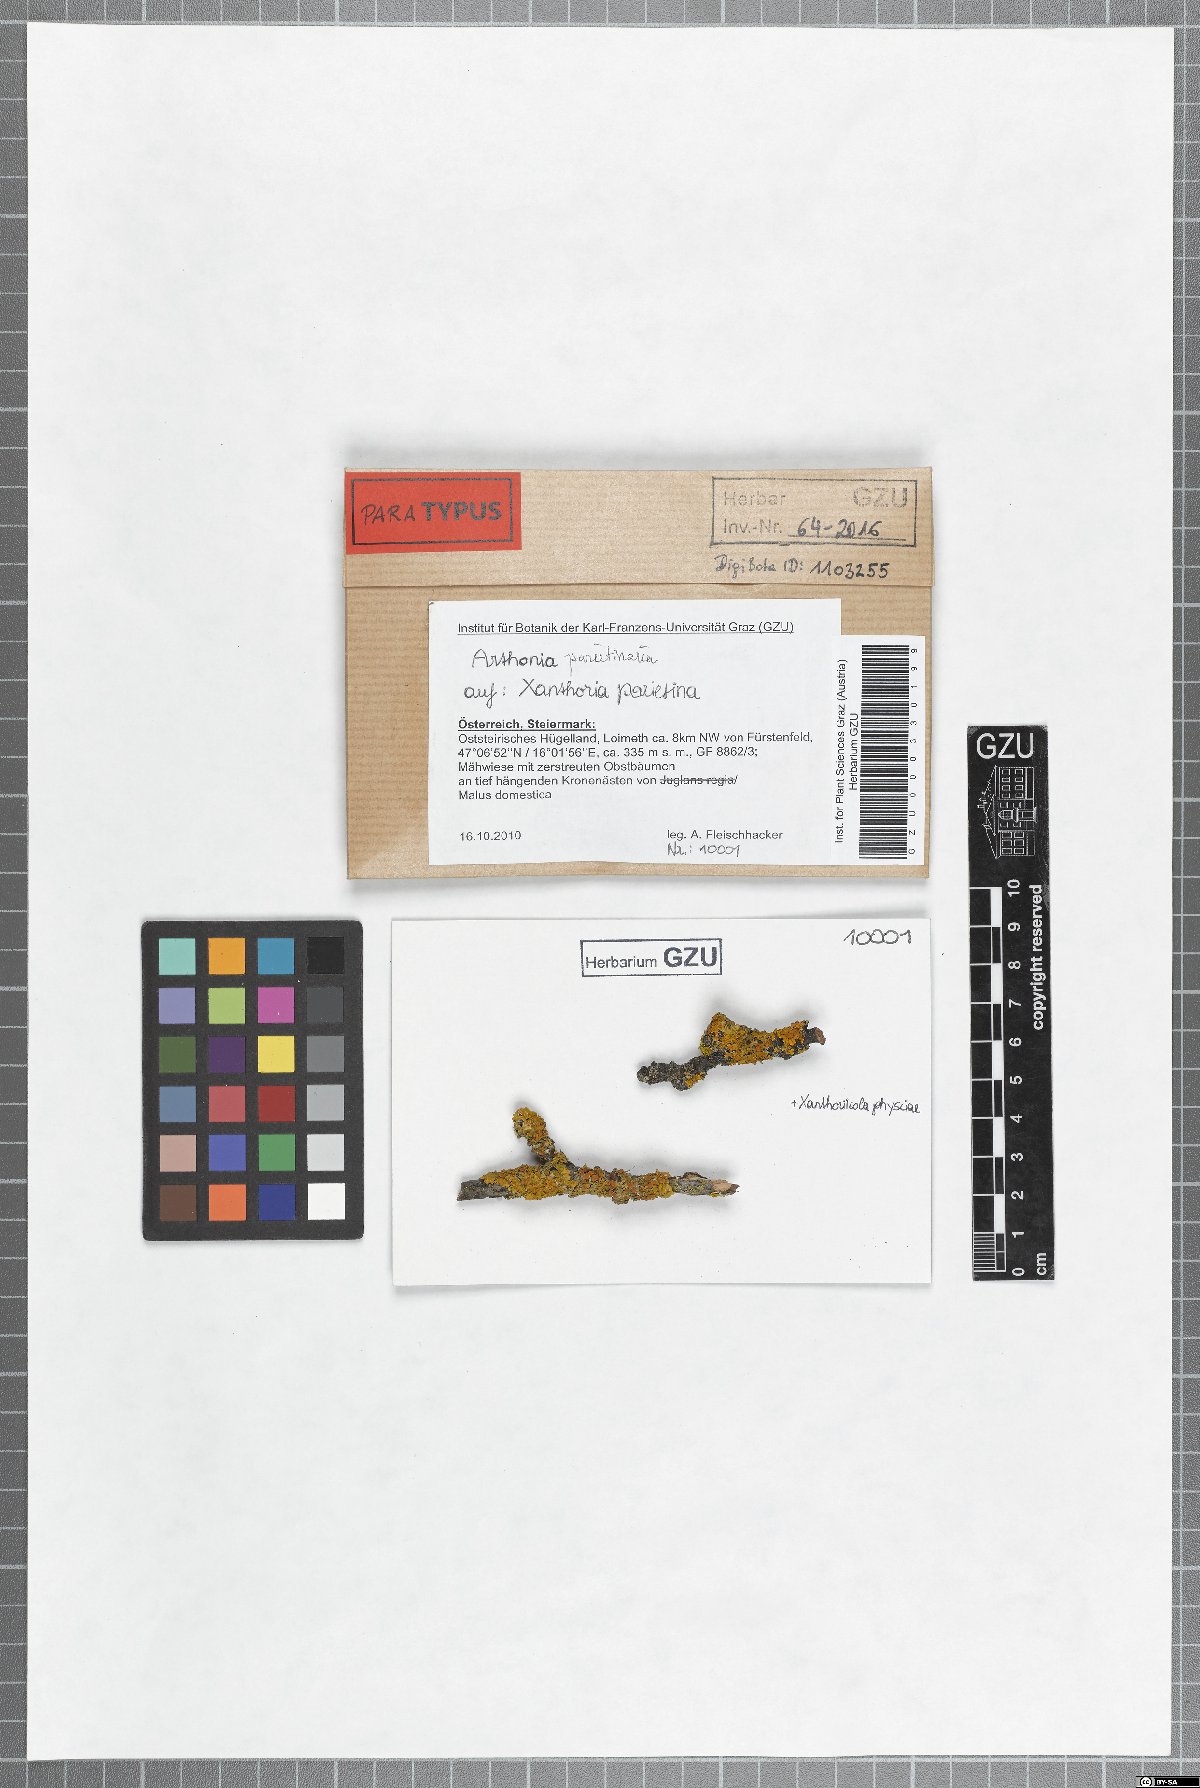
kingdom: Fungi
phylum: Ascomycota
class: Arthoniomycetes
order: Arthoniales
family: Arthoniaceae
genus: Bryostigma
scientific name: Bryostigma parietinarium
